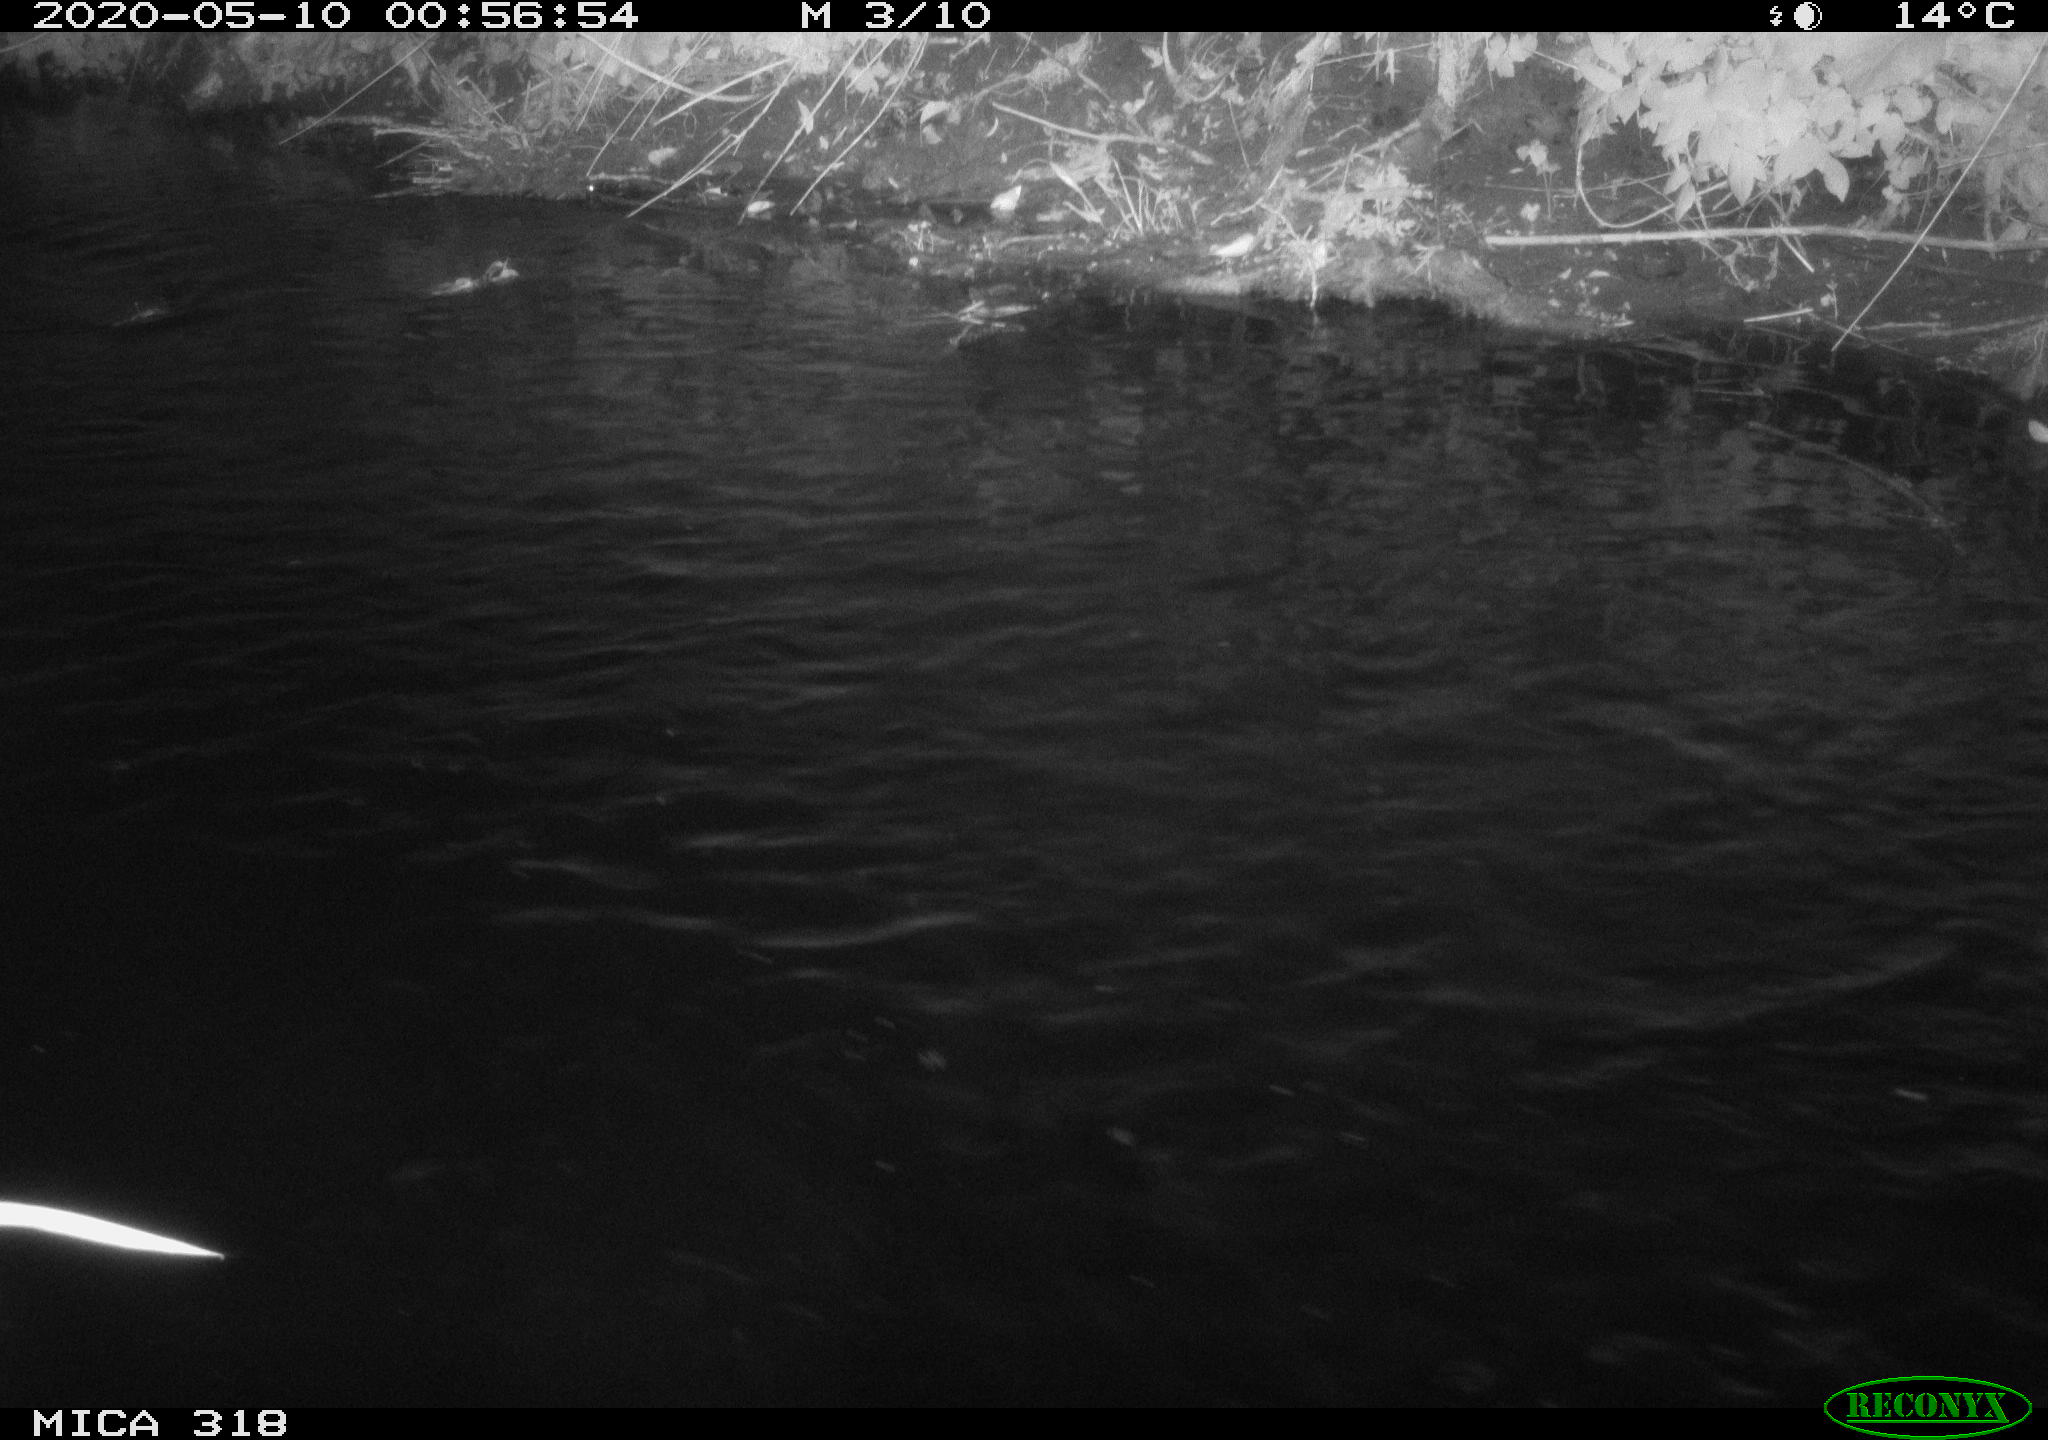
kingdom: Animalia
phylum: Chordata
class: Aves
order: Pelecaniformes
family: Ardeidae
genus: Ardea
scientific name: Ardea cinerea
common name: Grey heron
